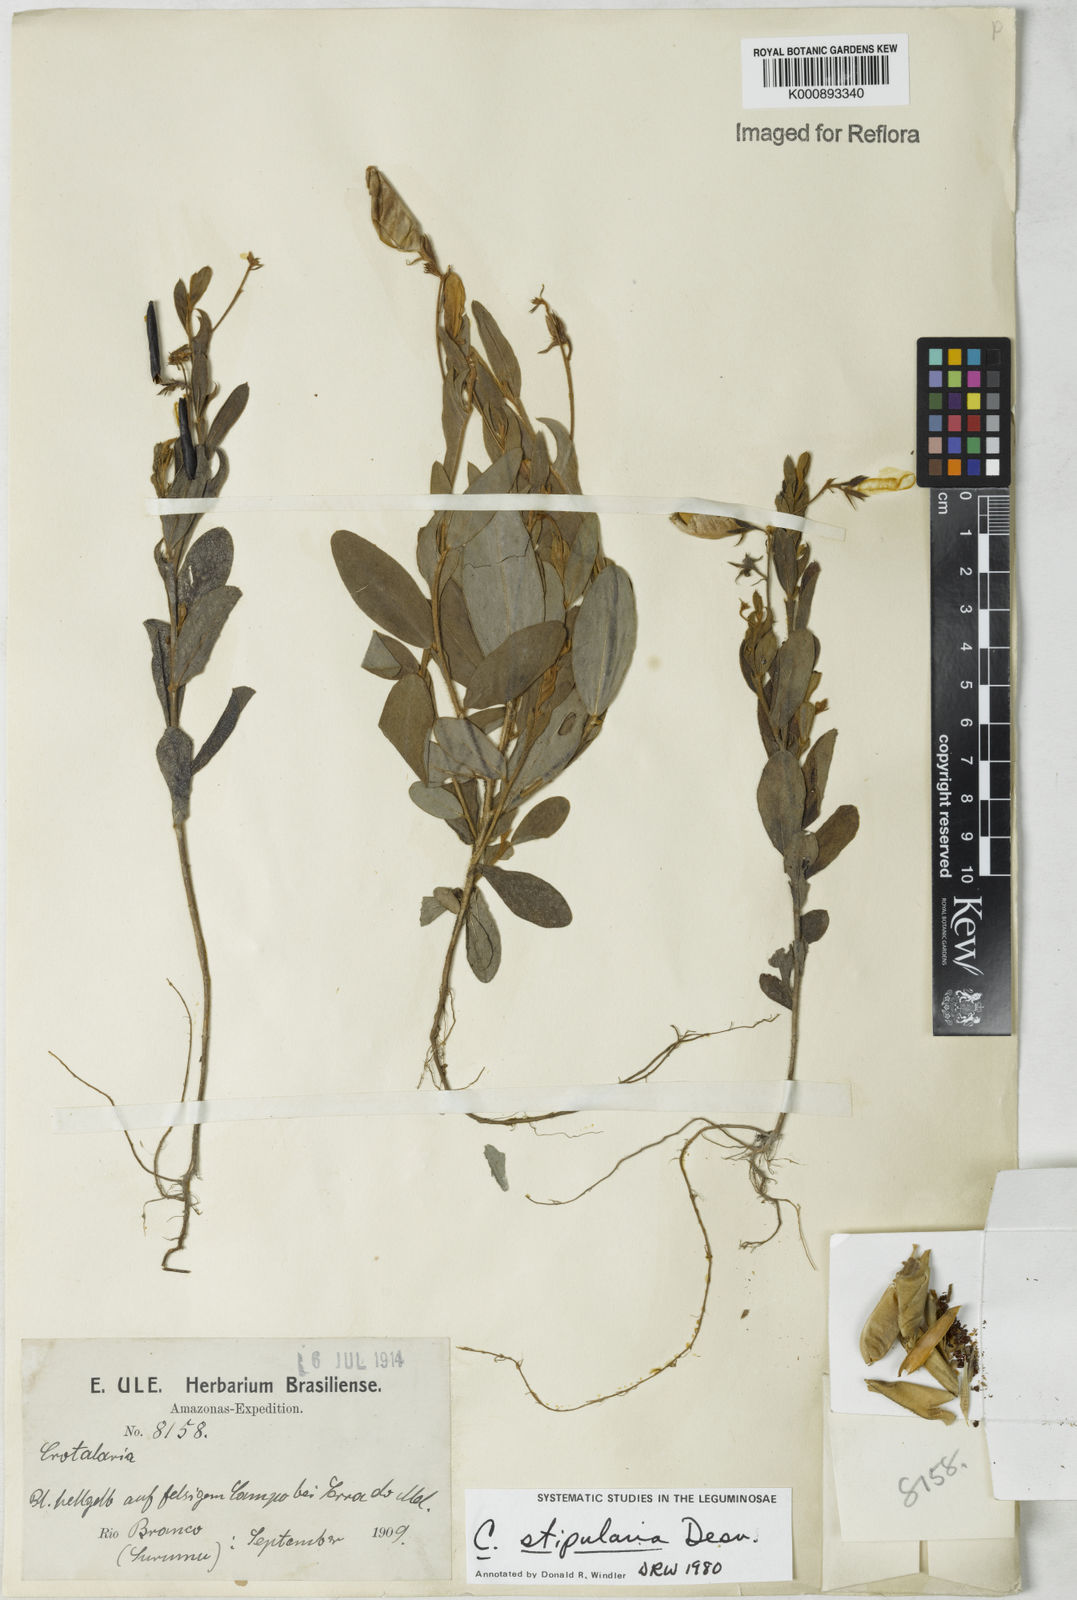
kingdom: Plantae
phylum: Tracheophyta
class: Magnoliopsida
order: Fabales
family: Fabaceae
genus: Crotalaria
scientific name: Crotalaria stipularia
